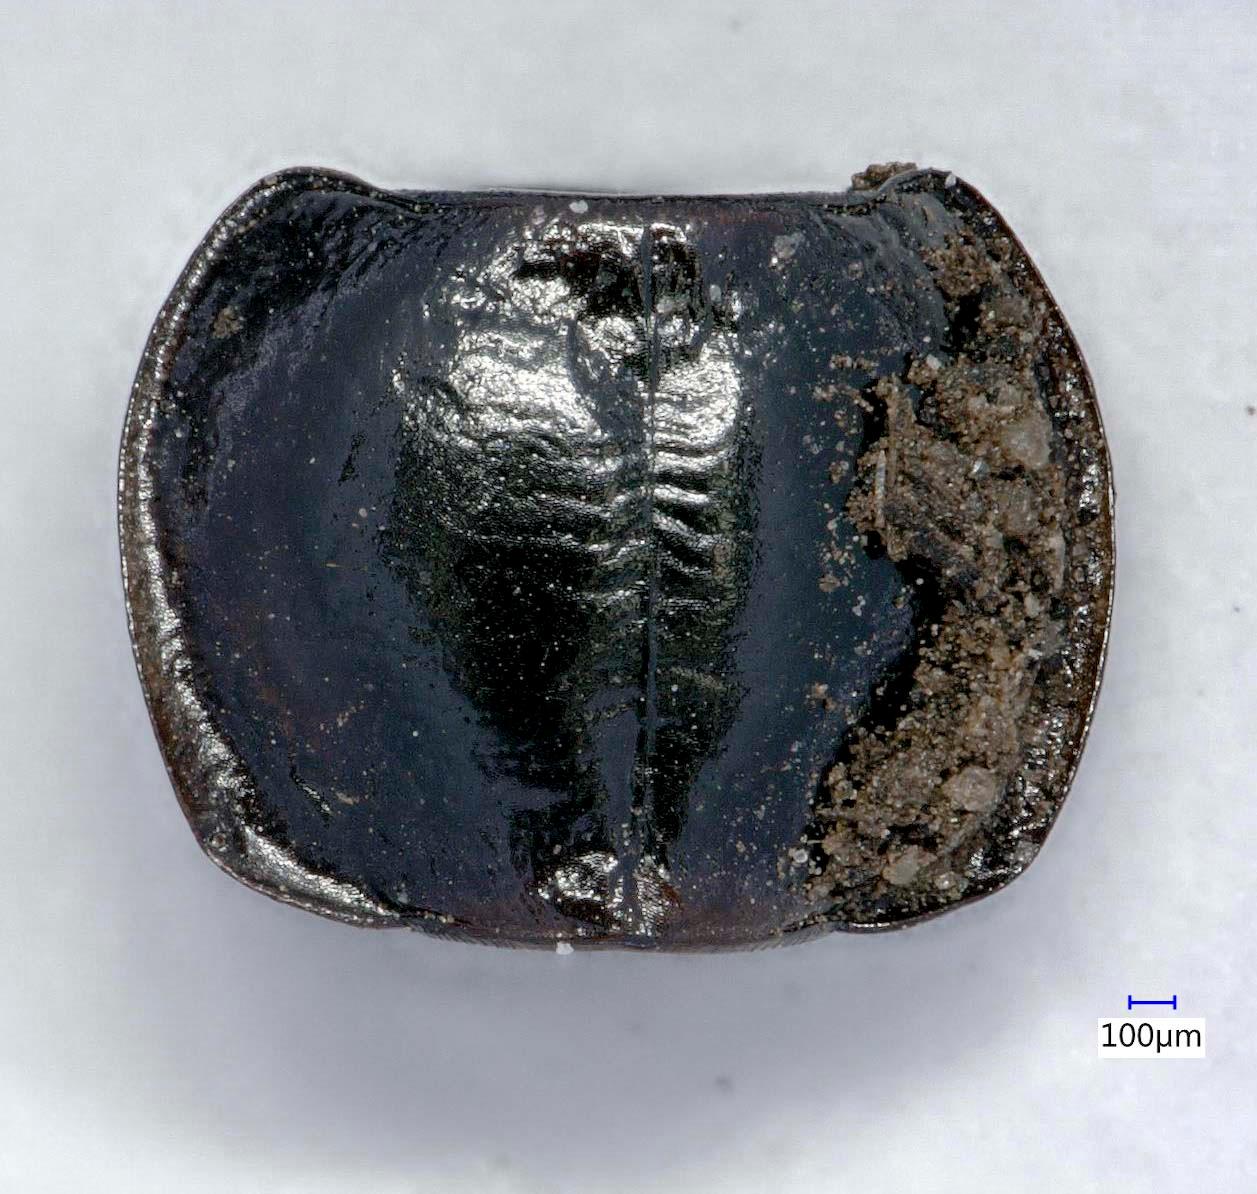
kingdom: Animalia
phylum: Arthropoda
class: Insecta
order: Coleoptera
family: Carabidae
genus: Tanystoma
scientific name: Tanystoma maculicolle
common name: Tule beetle
